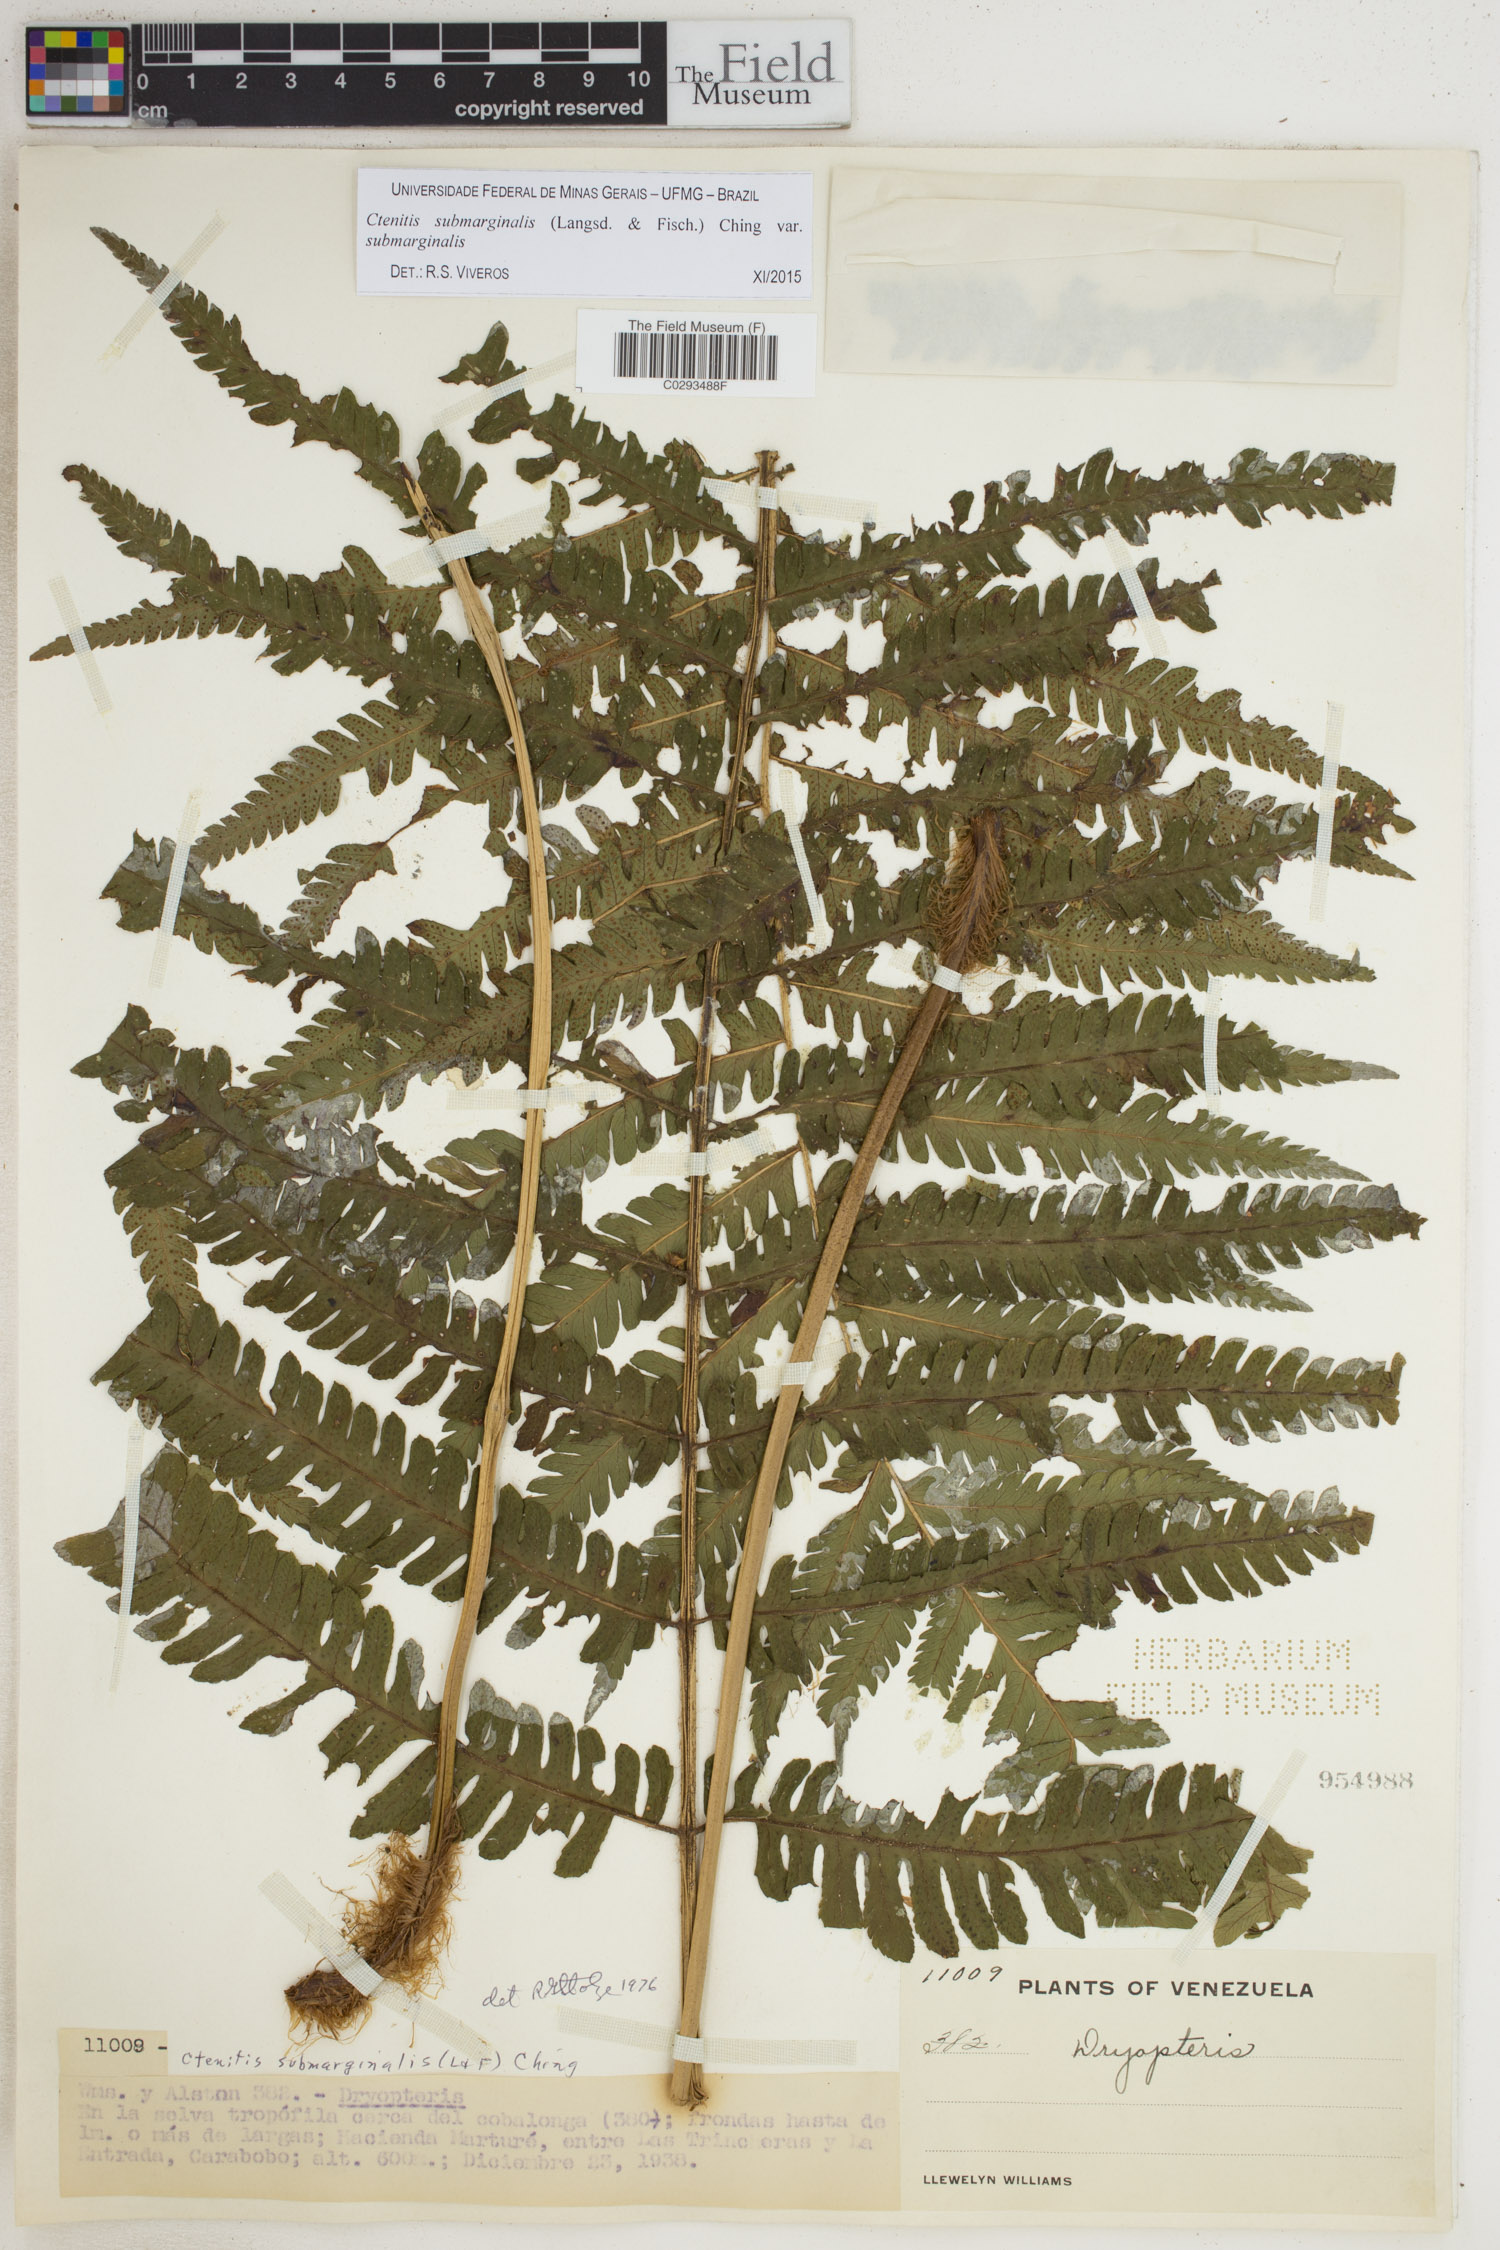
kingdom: Plantae
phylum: Tracheophyta
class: Polypodiopsida
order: Polypodiales
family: Dryopteridaceae
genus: Ctenitis
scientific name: Ctenitis submarginalis
